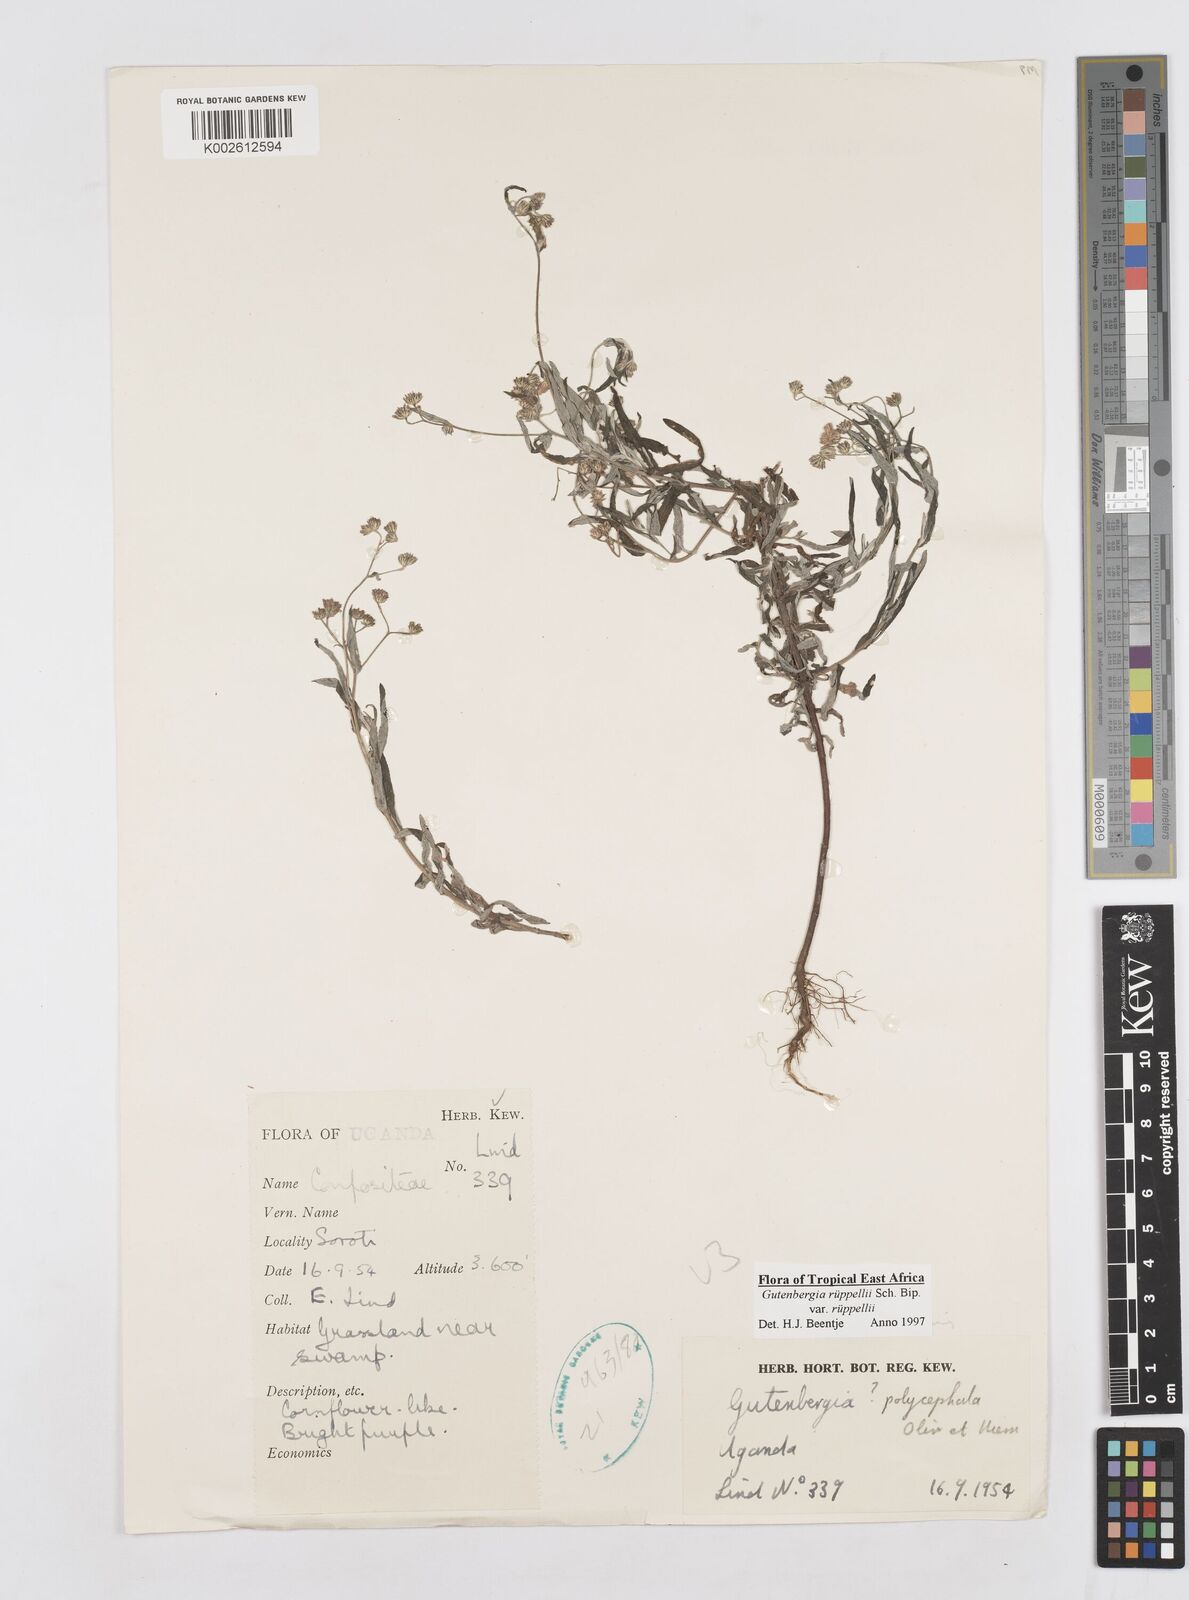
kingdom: Plantae
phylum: Tracheophyta
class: Magnoliopsida
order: Asterales
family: Asteraceae
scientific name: Asteraceae
